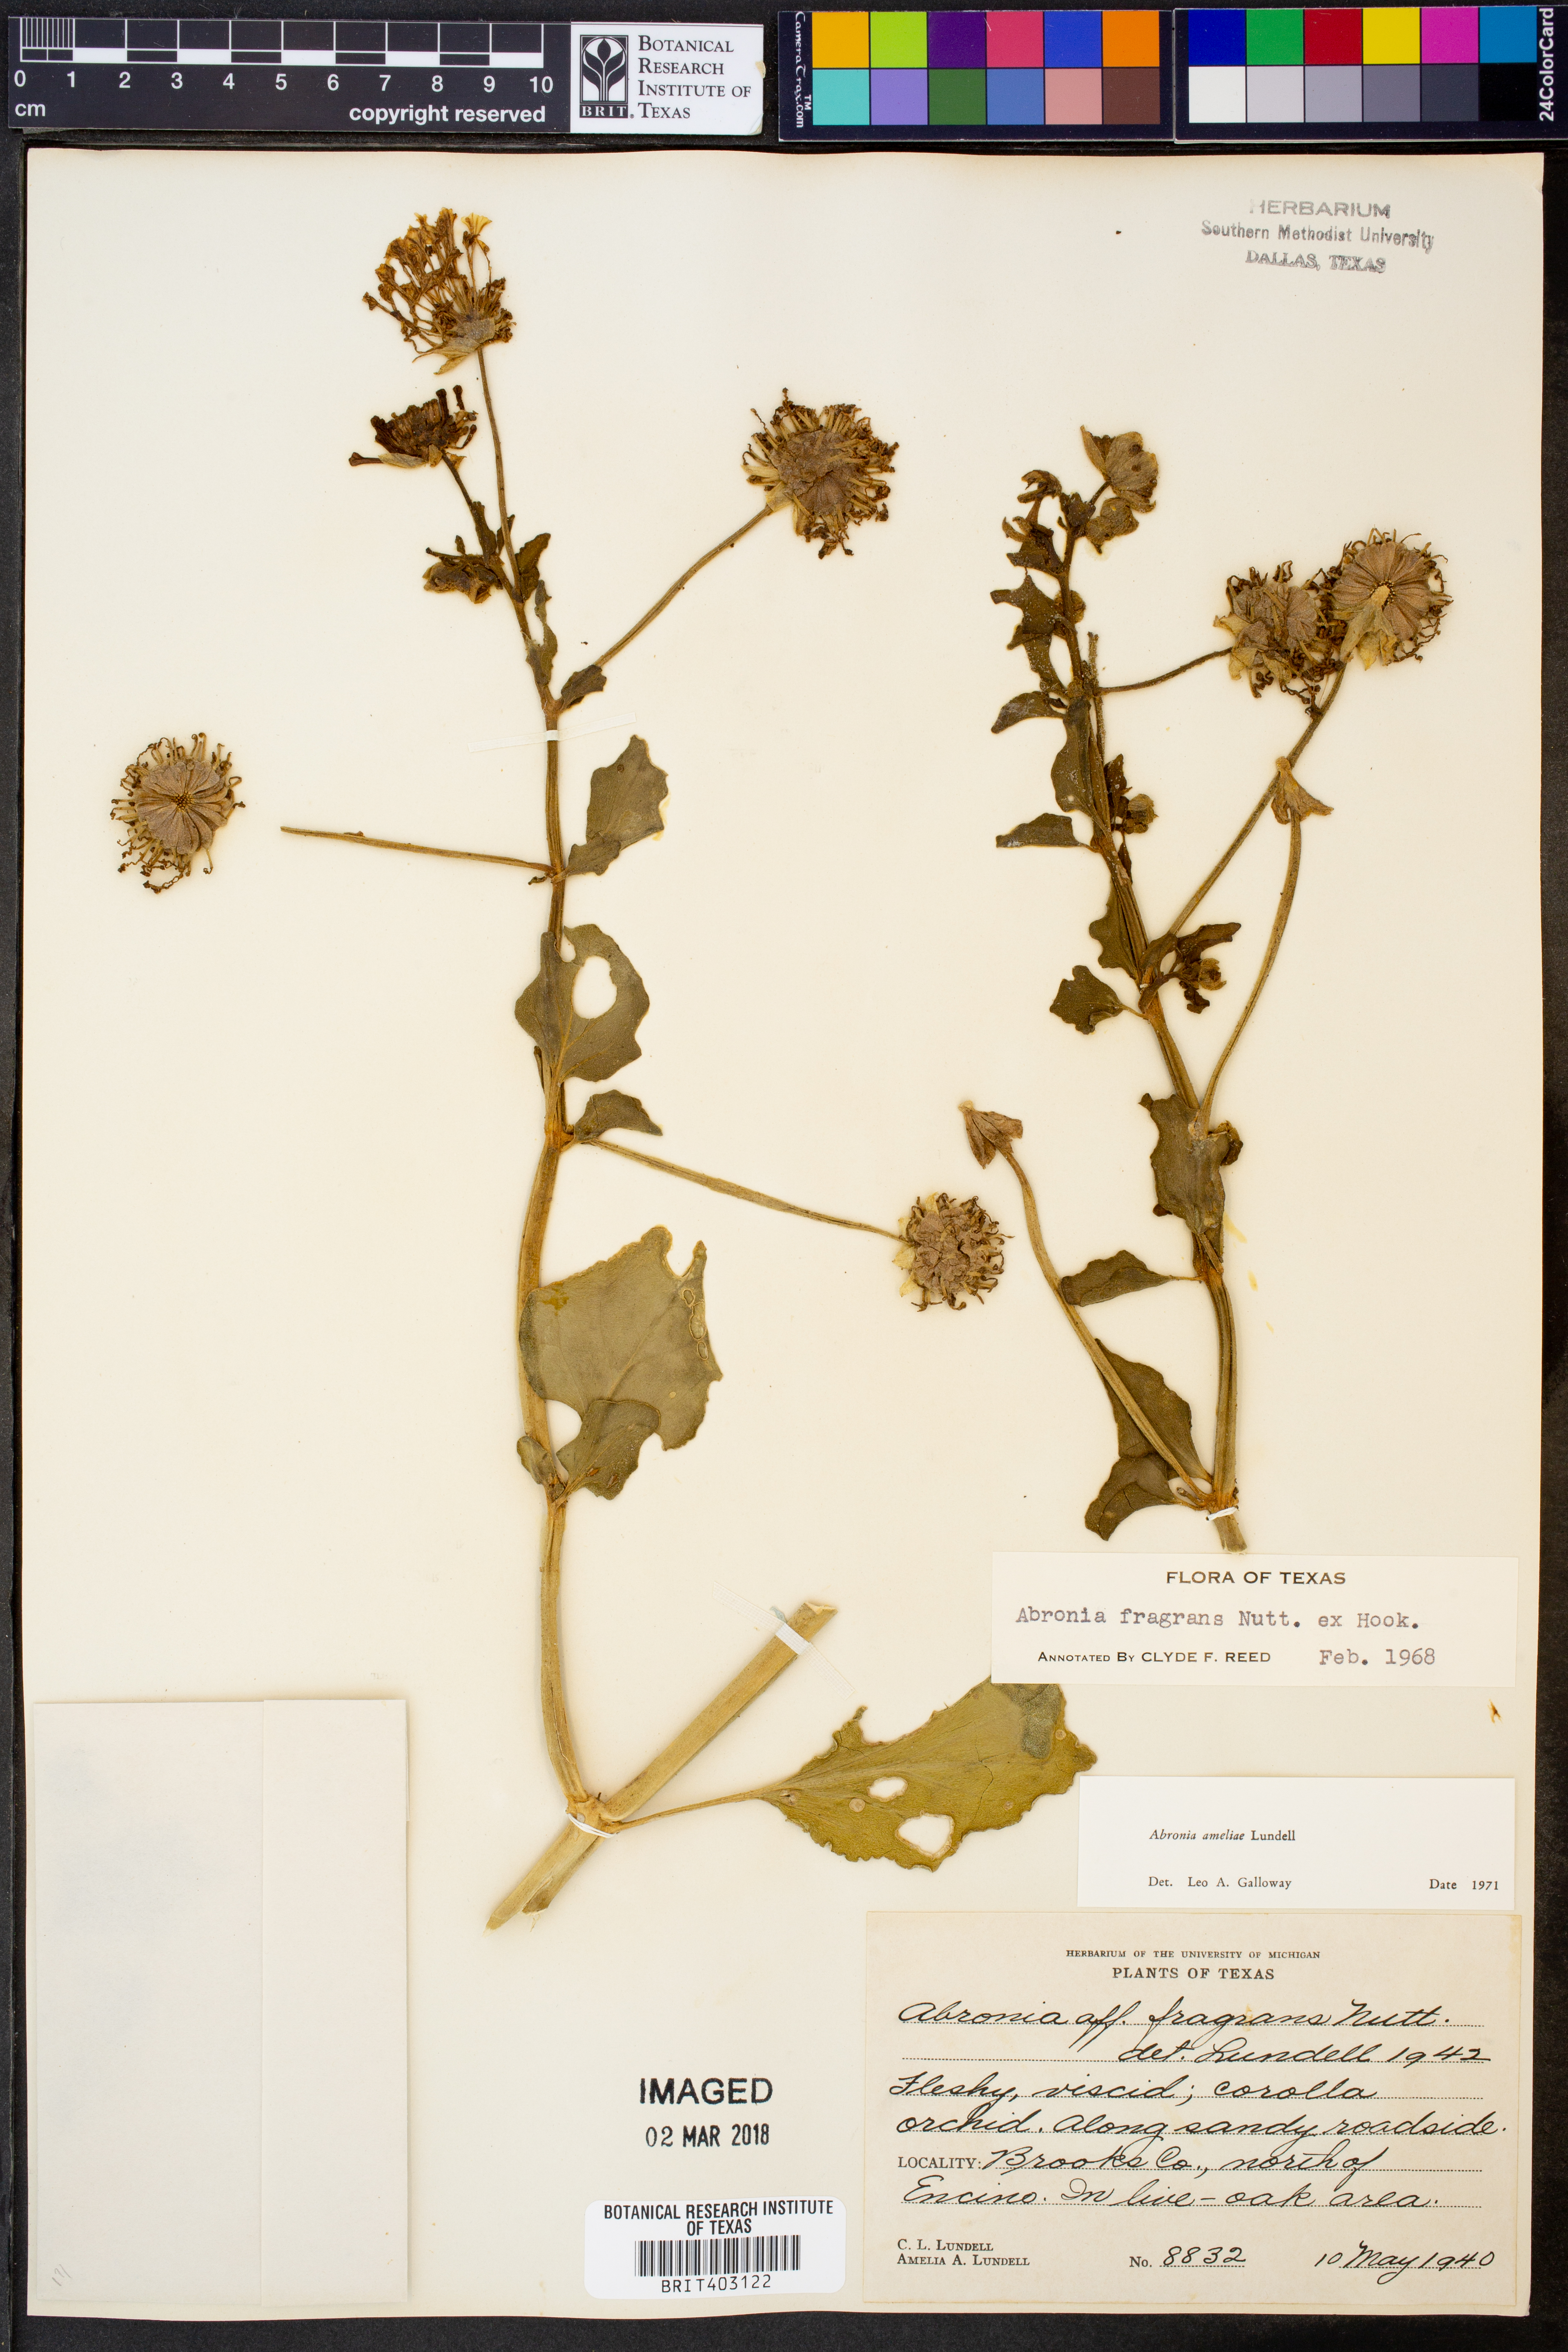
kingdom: Plantae
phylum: Tracheophyta
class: Magnoliopsida
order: Caryophyllales
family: Nyctaginaceae
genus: Abronia
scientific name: Abronia ameliae
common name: Amelia's sand-verbena
